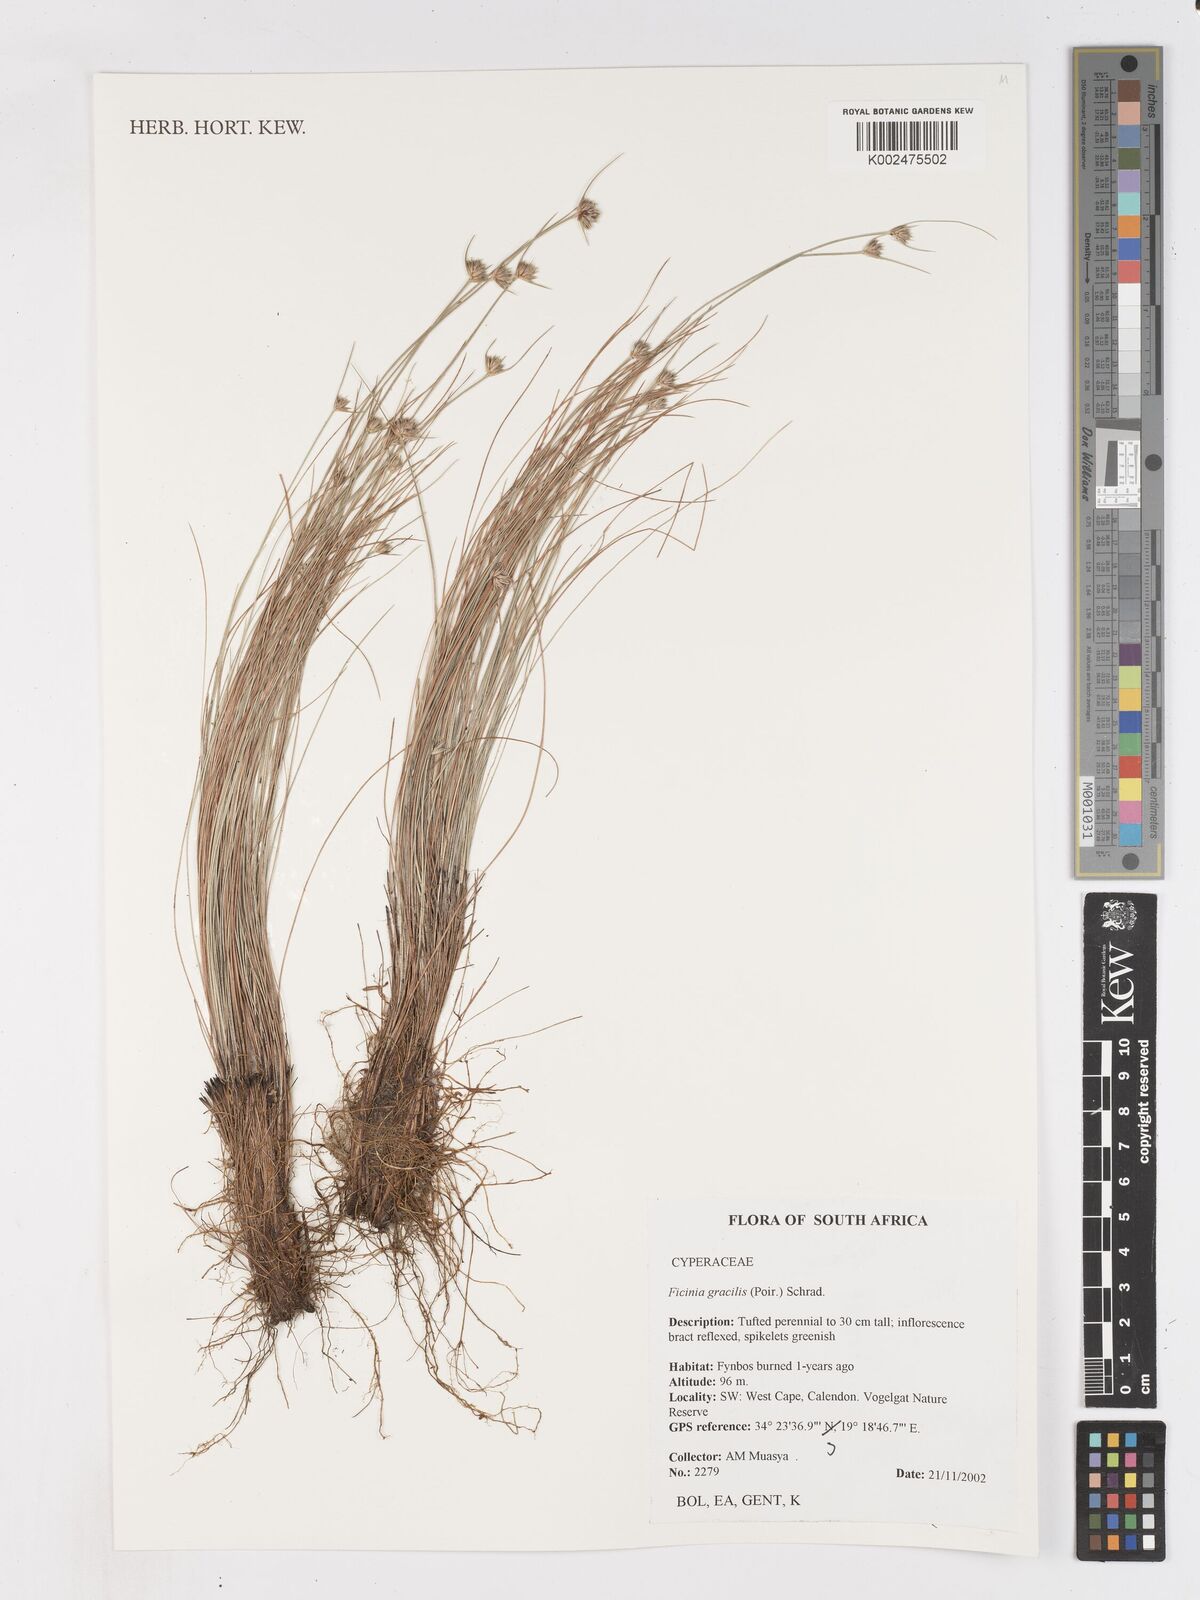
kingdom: Plantae
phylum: Tracheophyta
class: Liliopsida
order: Poales
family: Cyperaceae
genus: Ficinia
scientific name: Ficinia gracilis
